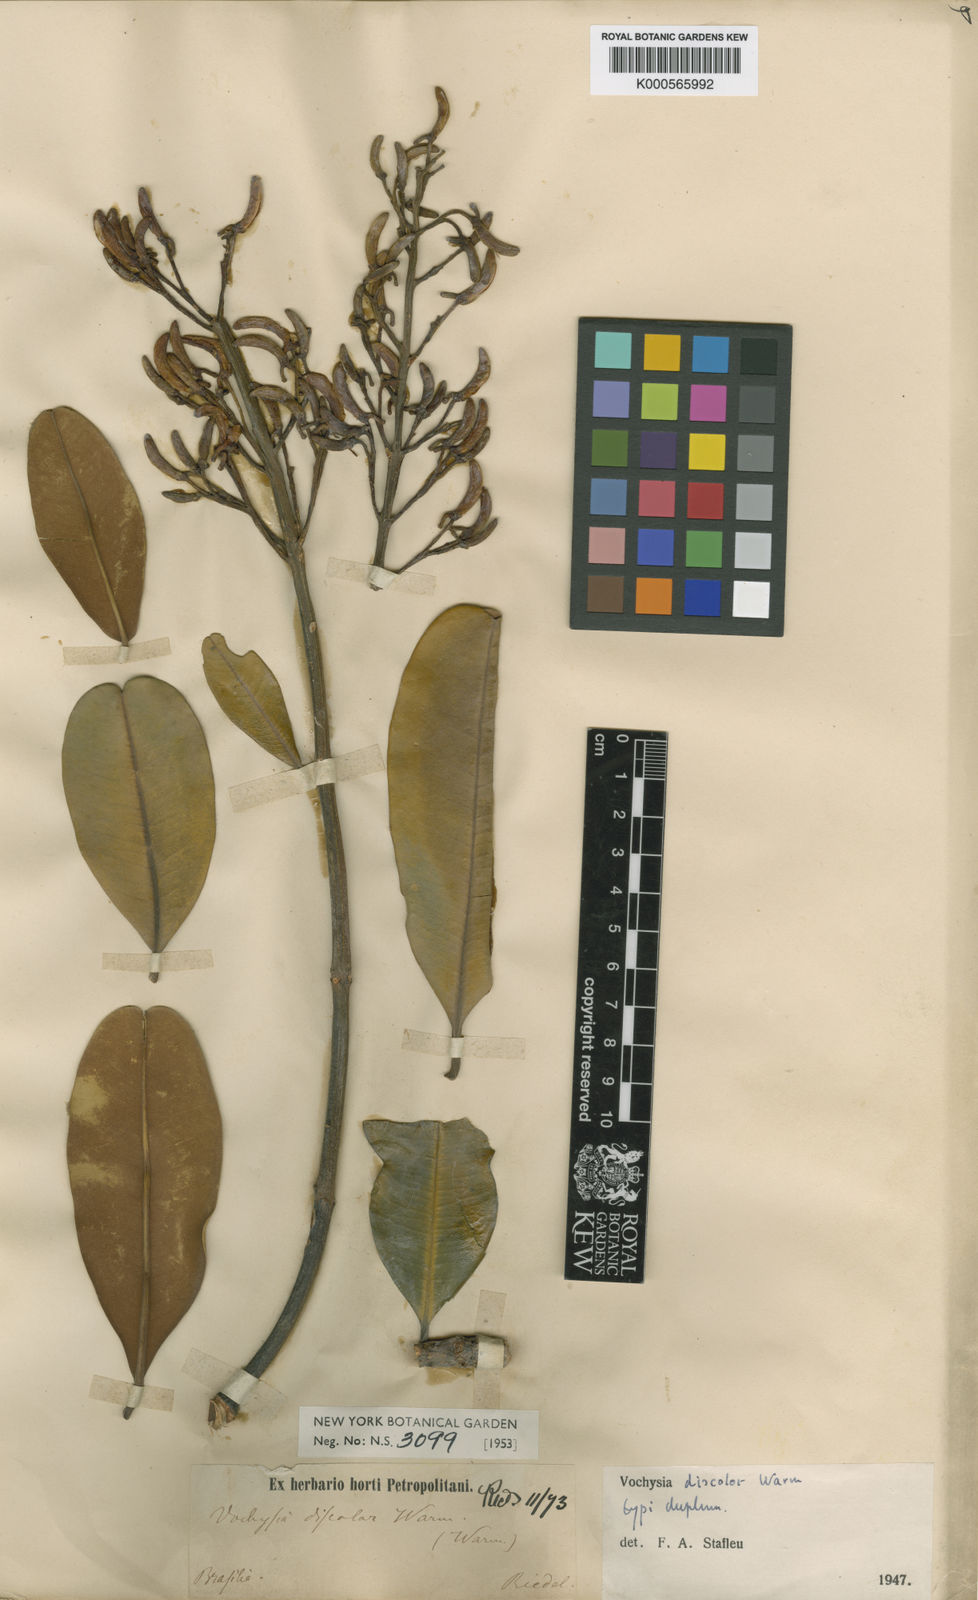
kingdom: Plantae
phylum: Tracheophyta
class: Magnoliopsida
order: Myrtales
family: Vochysiaceae
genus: Vochysia
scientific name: Vochysia discolor
